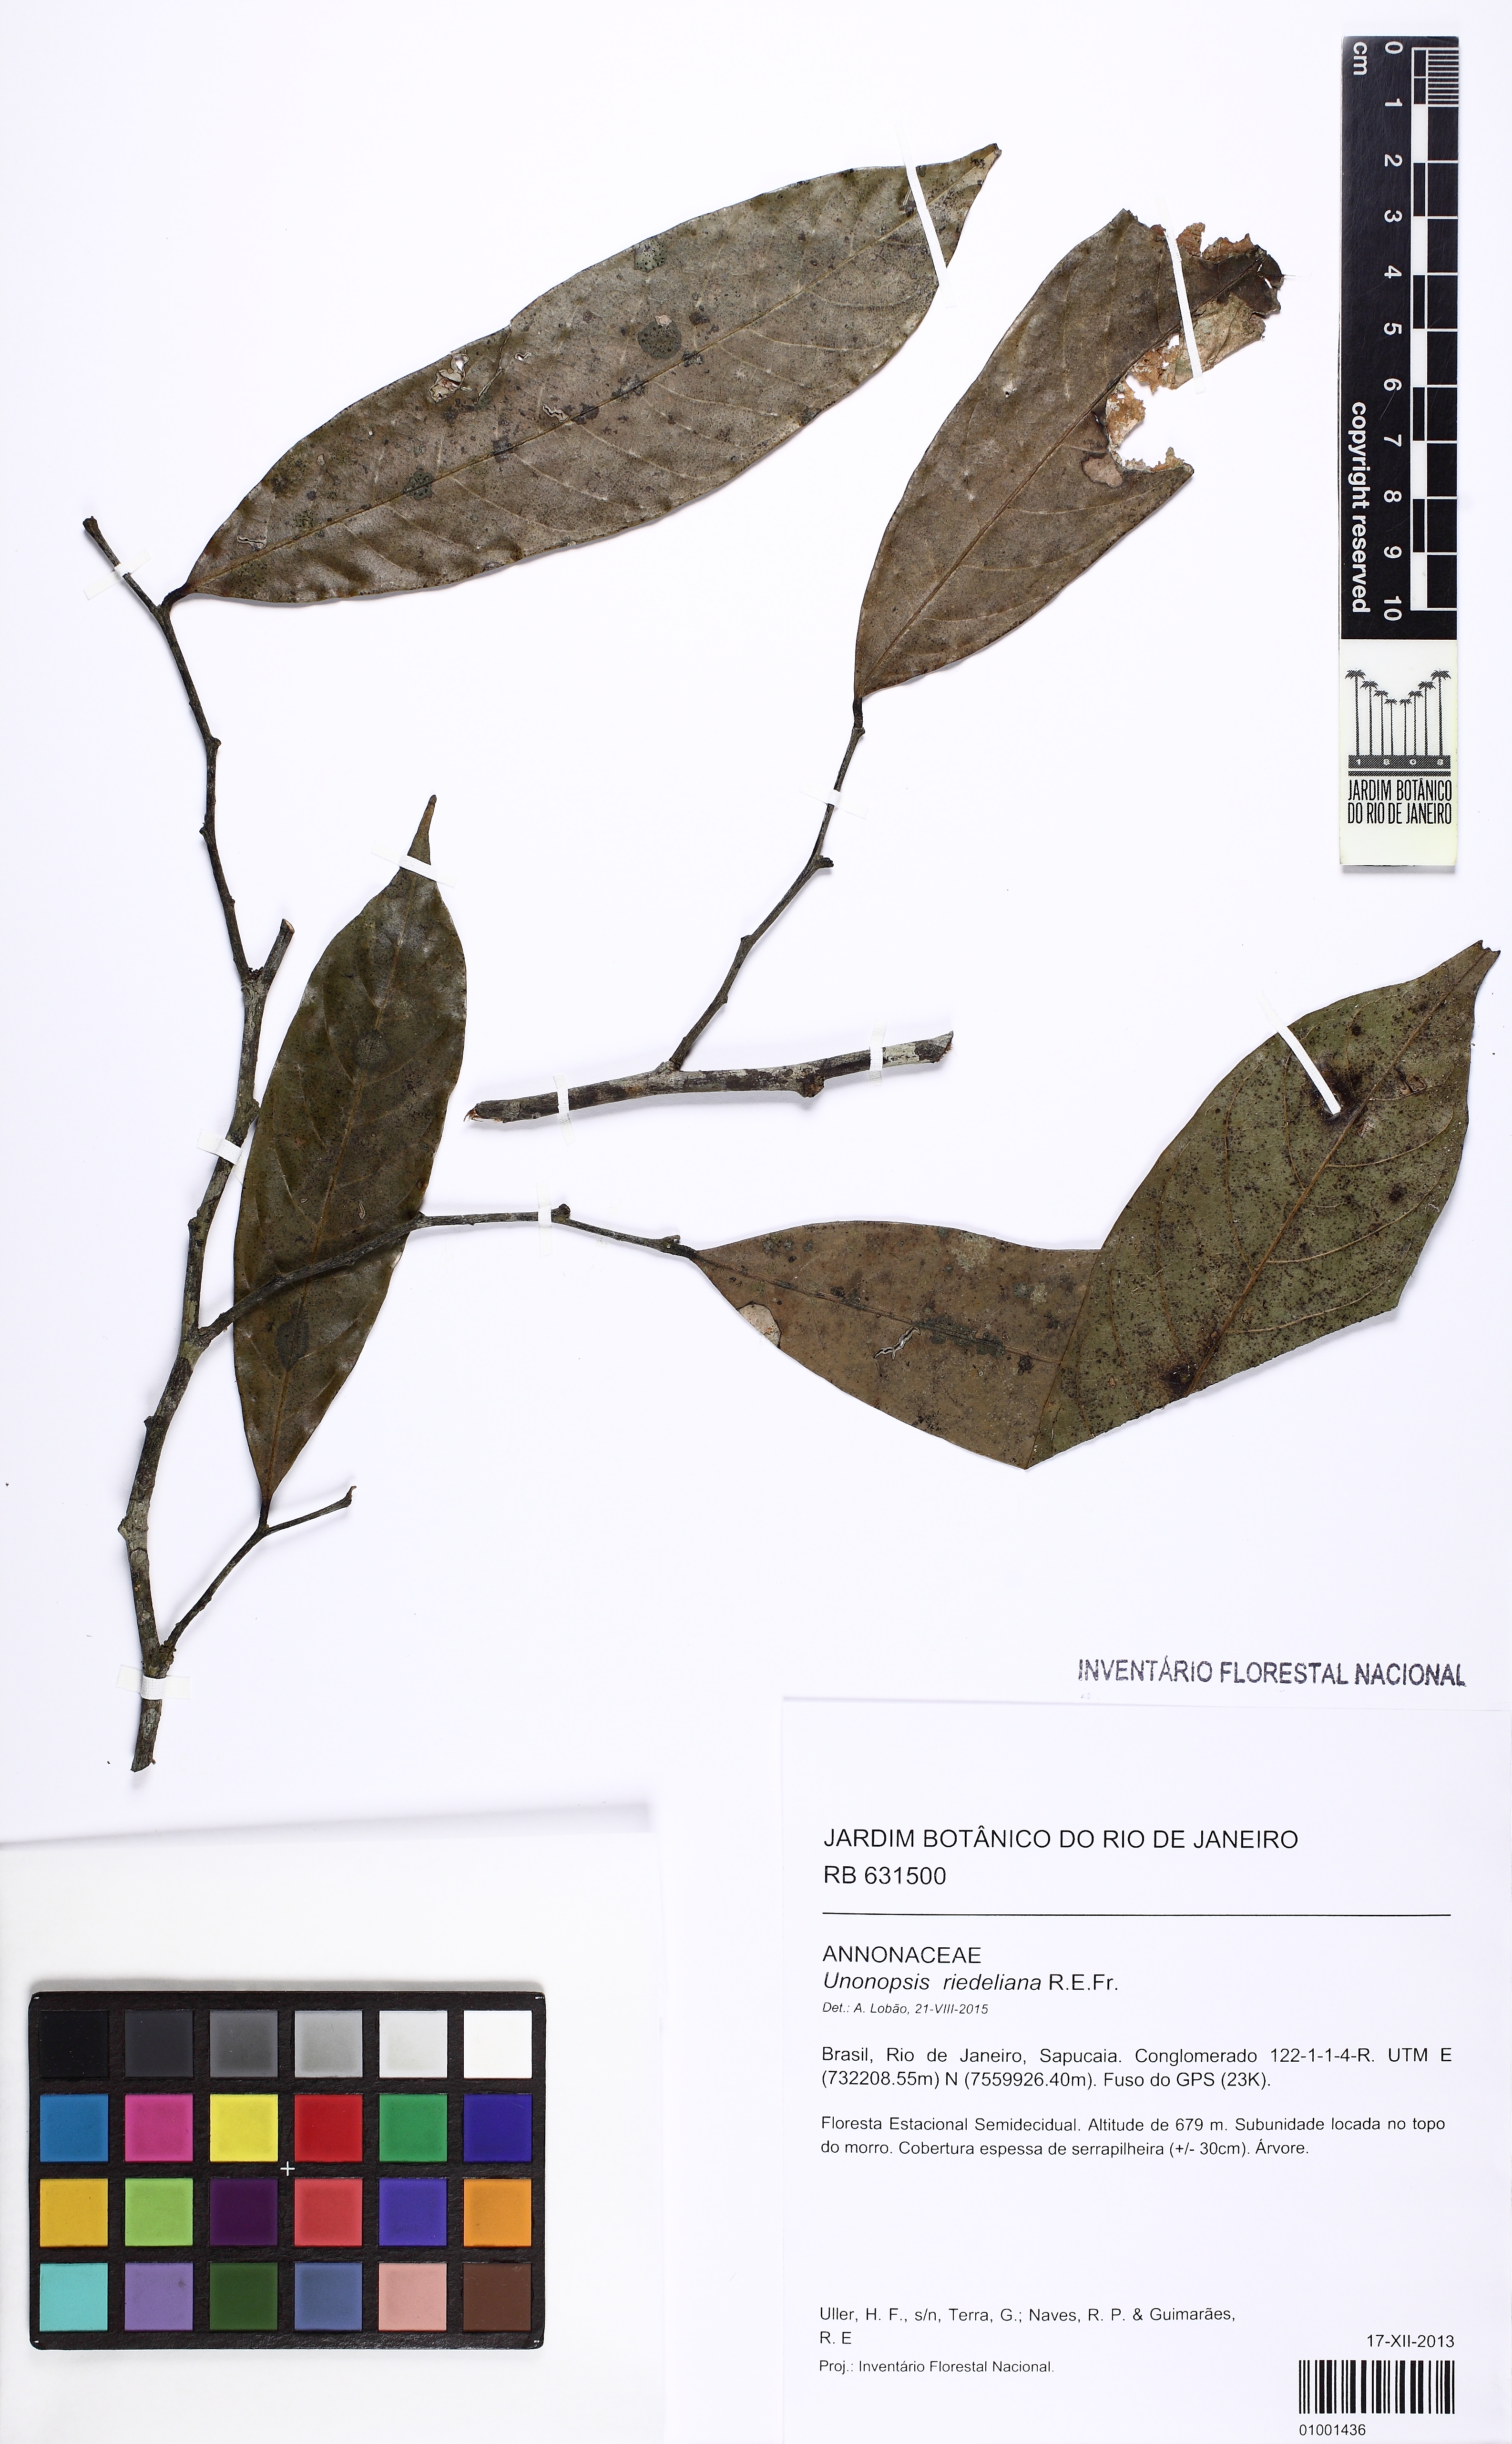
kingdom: Plantae
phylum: Tracheophyta
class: Magnoliopsida
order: Magnoliales
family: Annonaceae
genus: Unonopsis
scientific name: Unonopsis riedeliana
